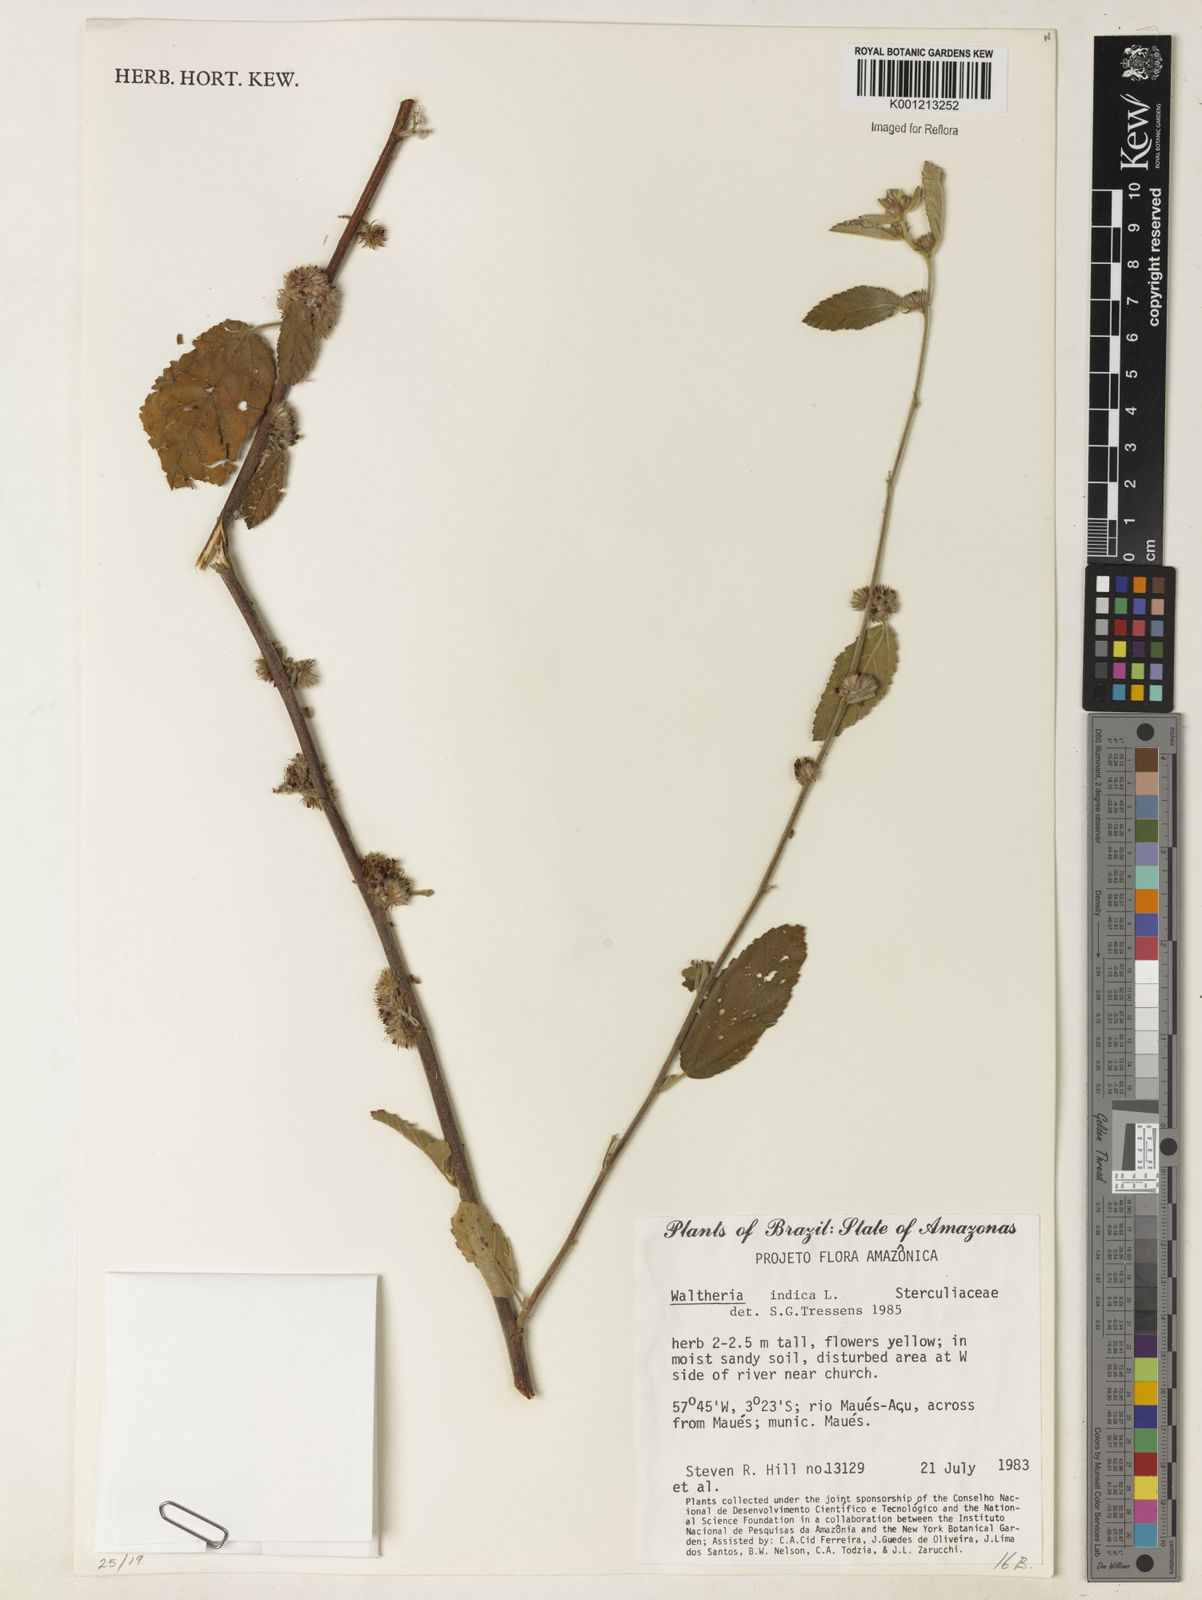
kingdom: Plantae
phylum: Tracheophyta
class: Magnoliopsida
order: Malvales
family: Malvaceae
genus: Waltheria
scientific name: Waltheria indica
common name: Leather-coat
